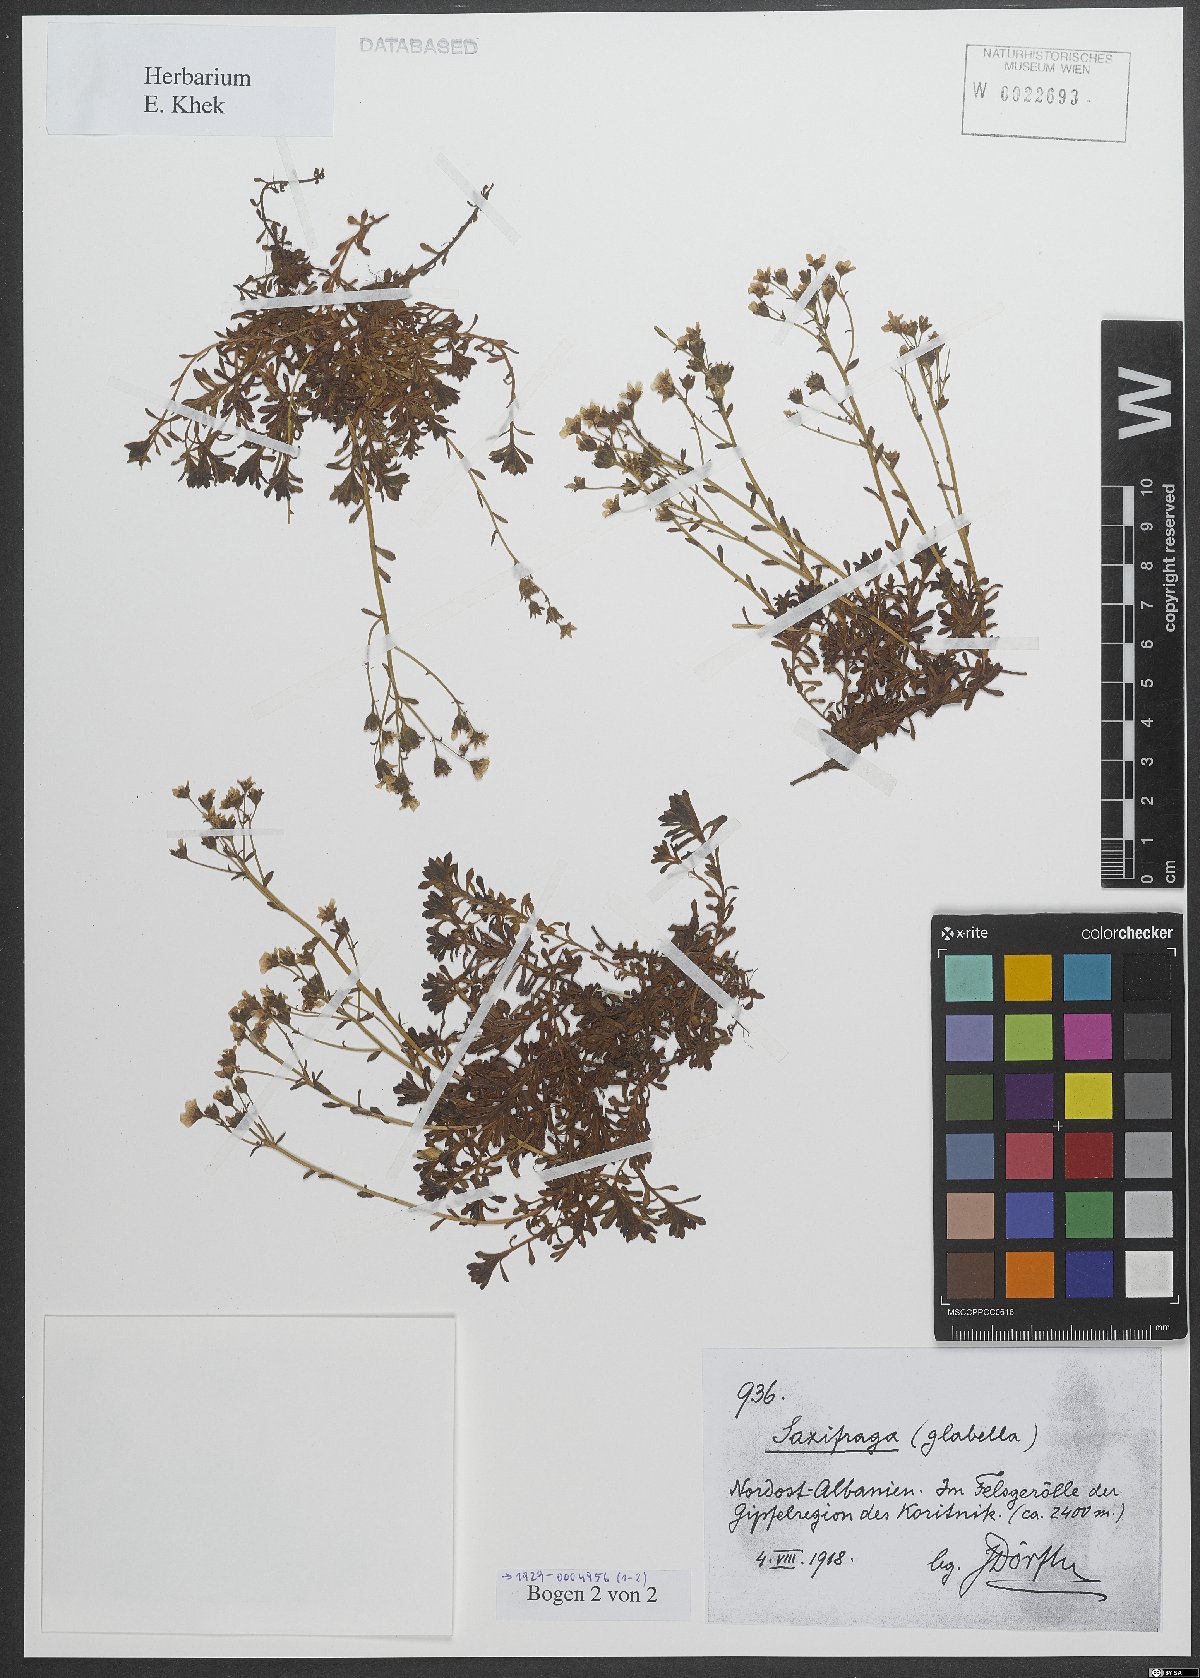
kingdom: Plantae
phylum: Tracheophyta
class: Magnoliopsida
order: Saxifragales
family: Saxifragaceae
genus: Saxifraga
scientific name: Saxifraga glabella
